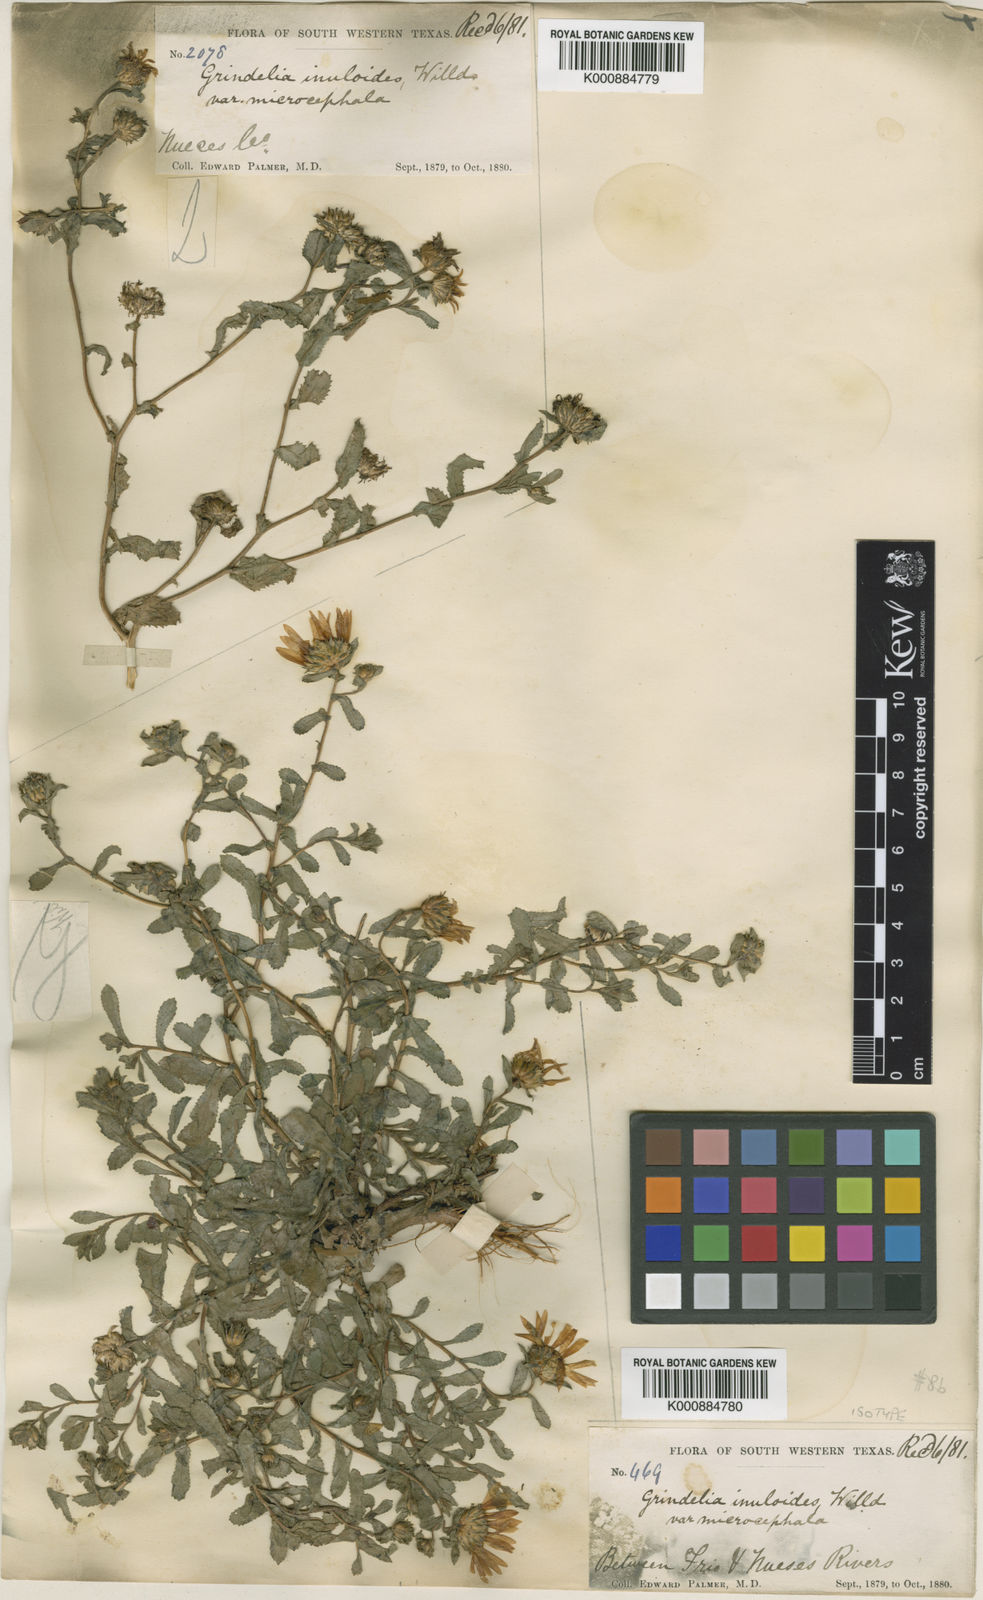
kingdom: Plantae
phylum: Tracheophyta
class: Magnoliopsida
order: Asterales
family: Asteraceae
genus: Grindelia
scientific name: Grindelia pusilla
